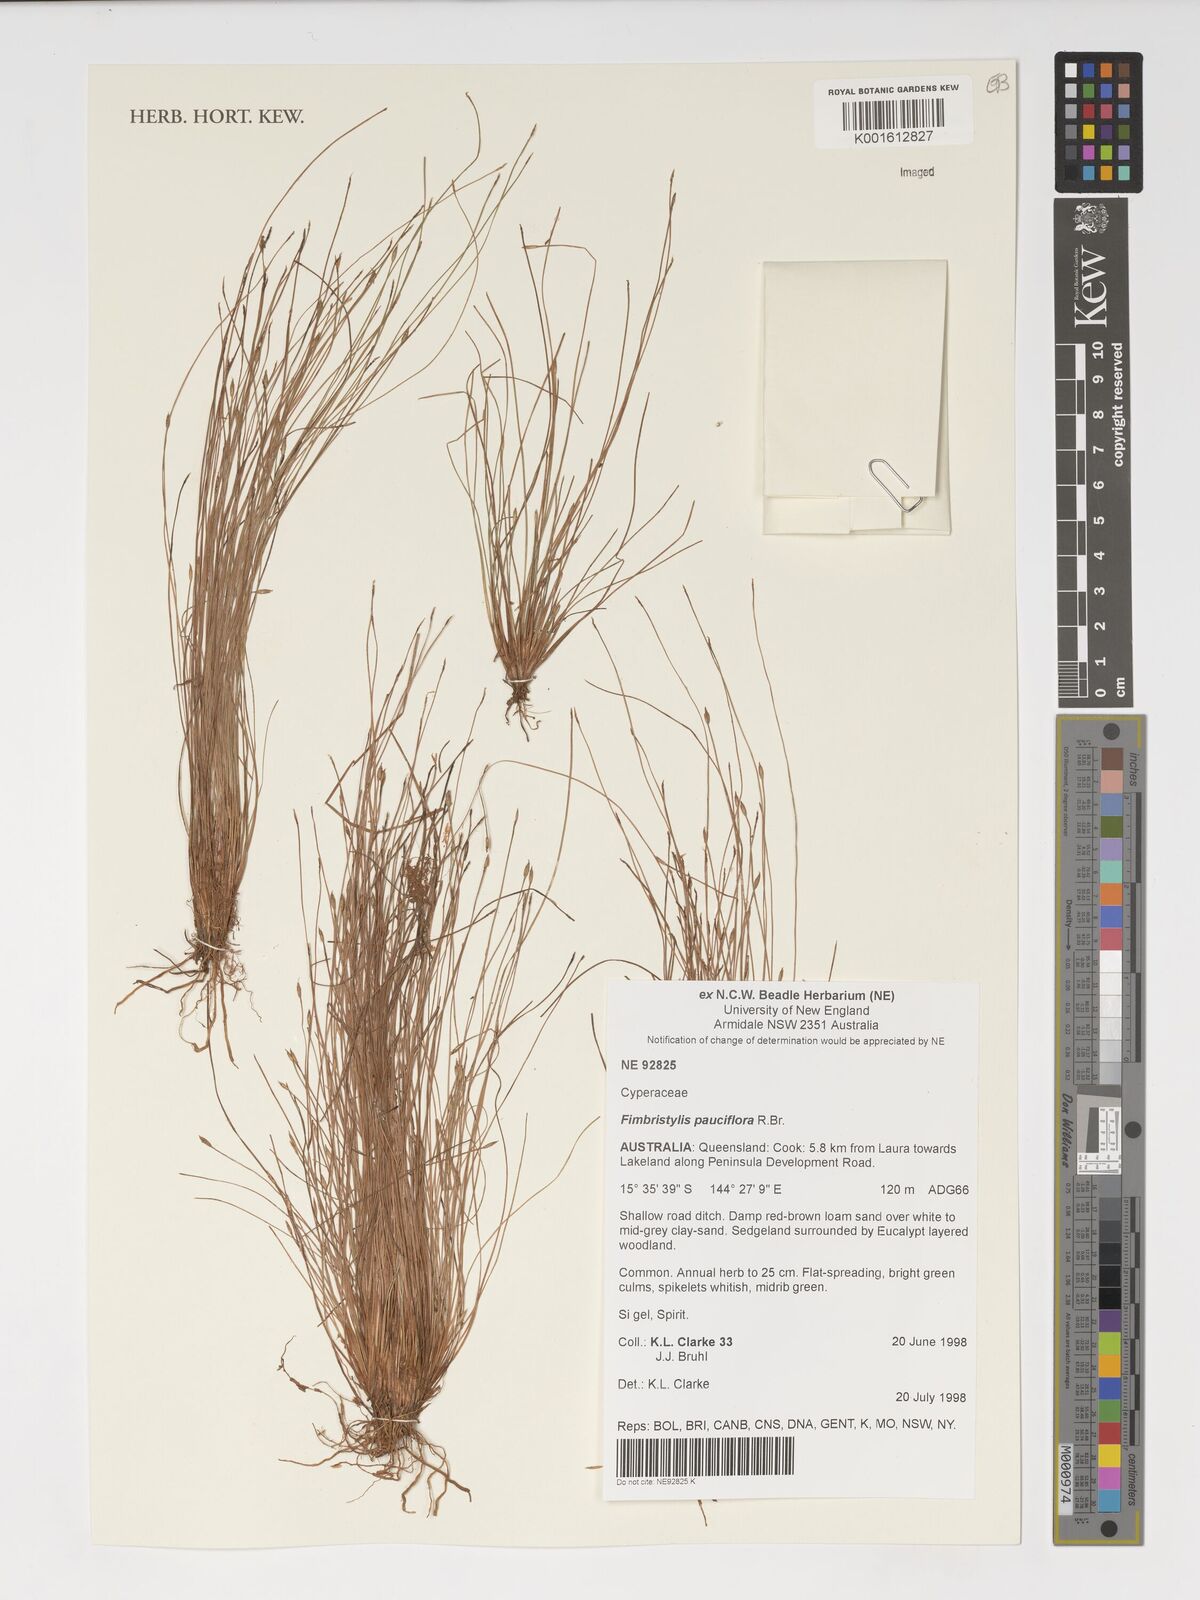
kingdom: Plantae
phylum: Tracheophyta
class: Liliopsida
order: Poales
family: Cyperaceae
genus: Fimbristylis
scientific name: Fimbristylis pauciflora
